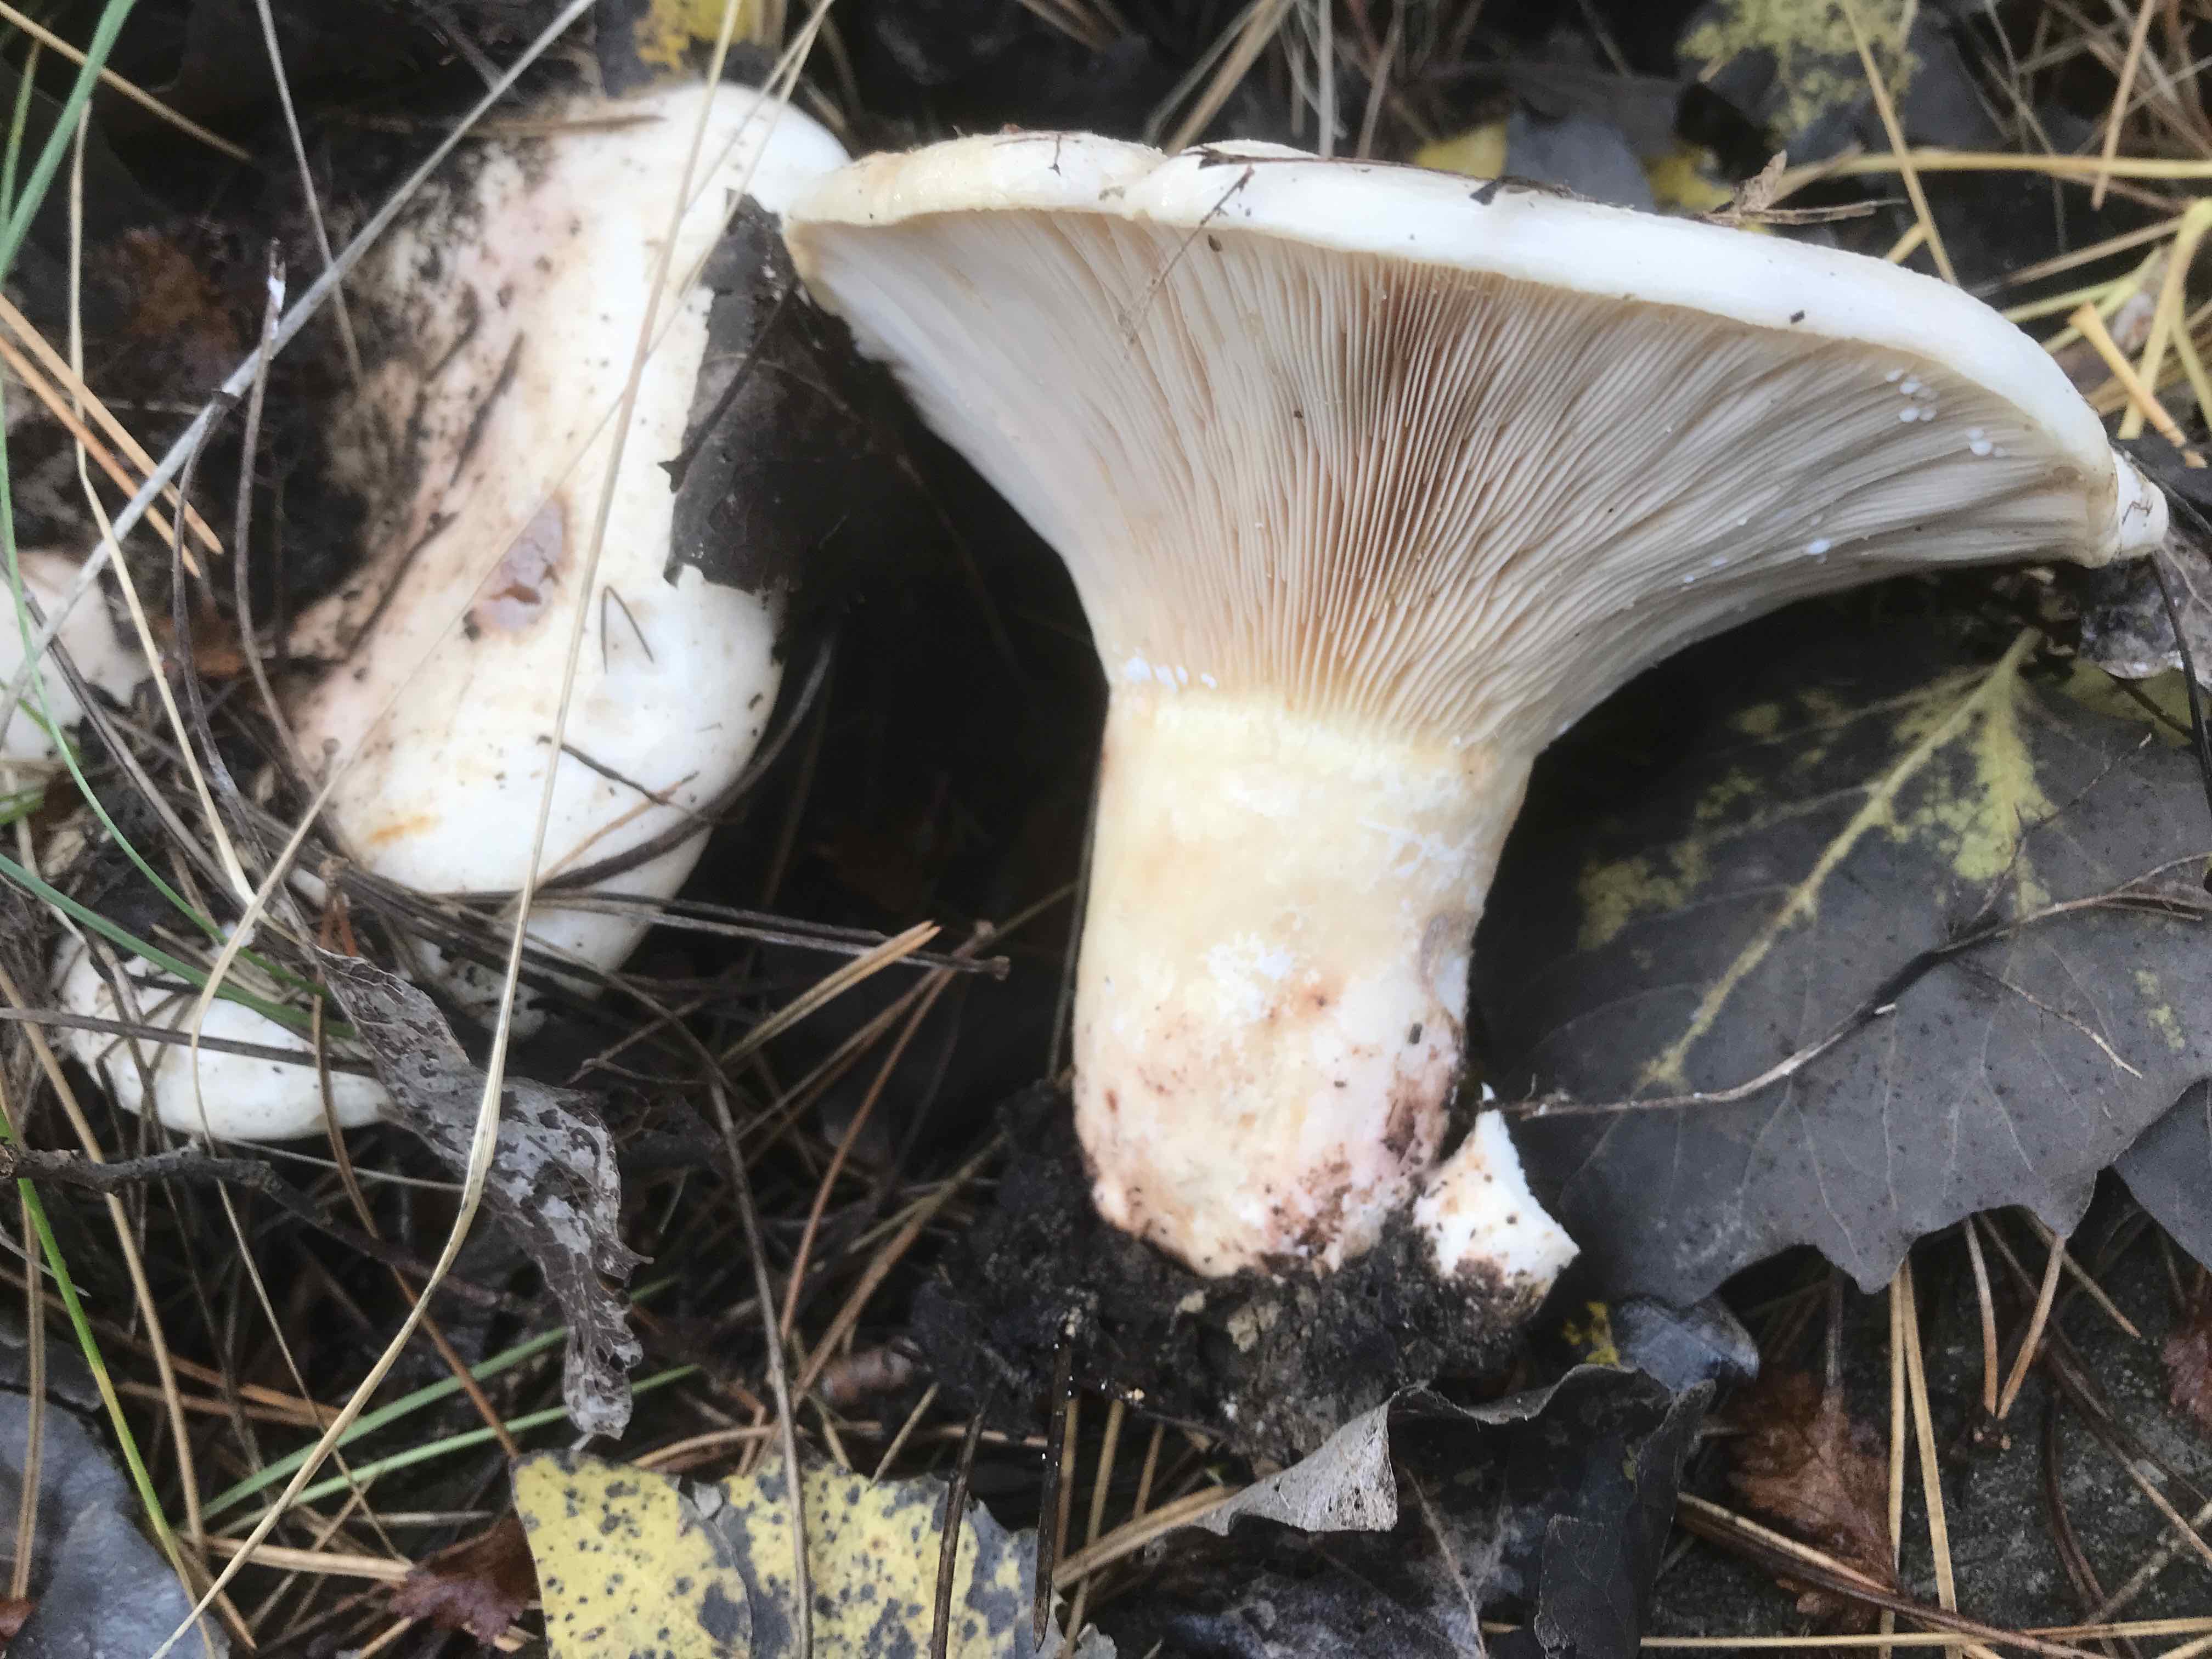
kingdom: Fungi
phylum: Basidiomycota
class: Agaricomycetes
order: Russulales
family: Russulaceae
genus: Lactarius
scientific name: Lactarius controversus
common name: rosabladet mælkehat
